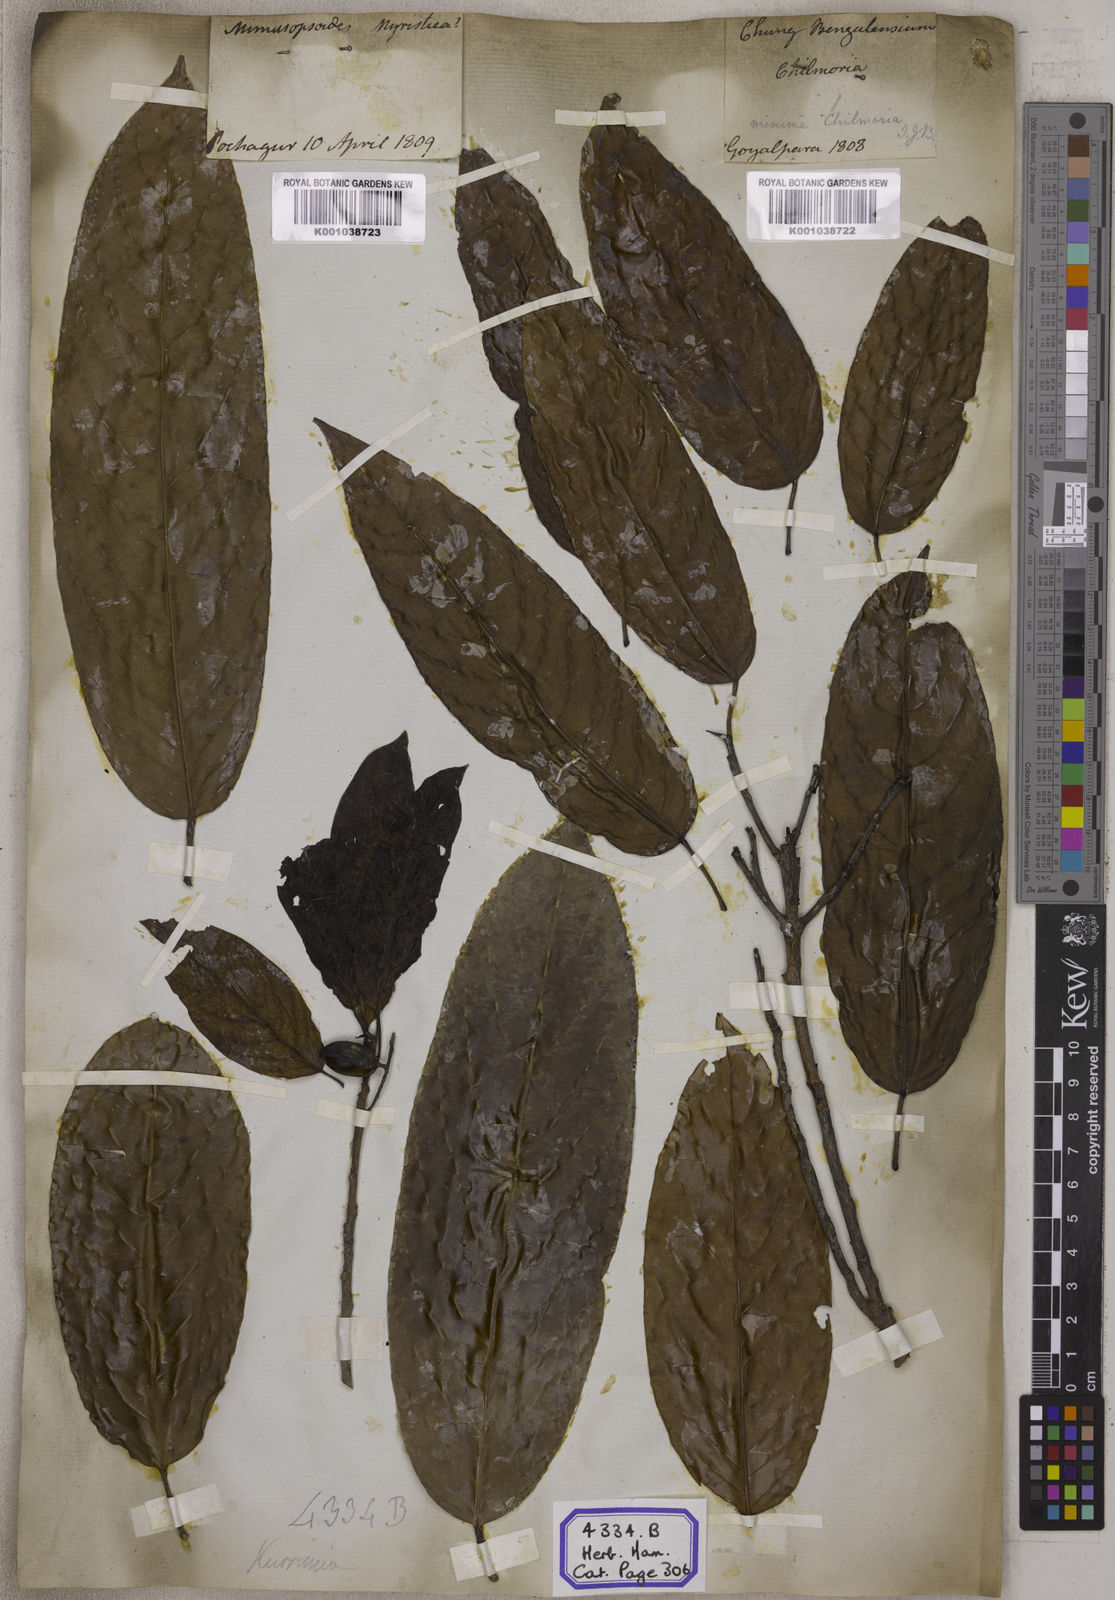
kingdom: Plantae
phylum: Tracheophyta
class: Magnoliopsida
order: Escalloniales
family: Escalloniaceae
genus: Kurrimia
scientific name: Kurrimia
